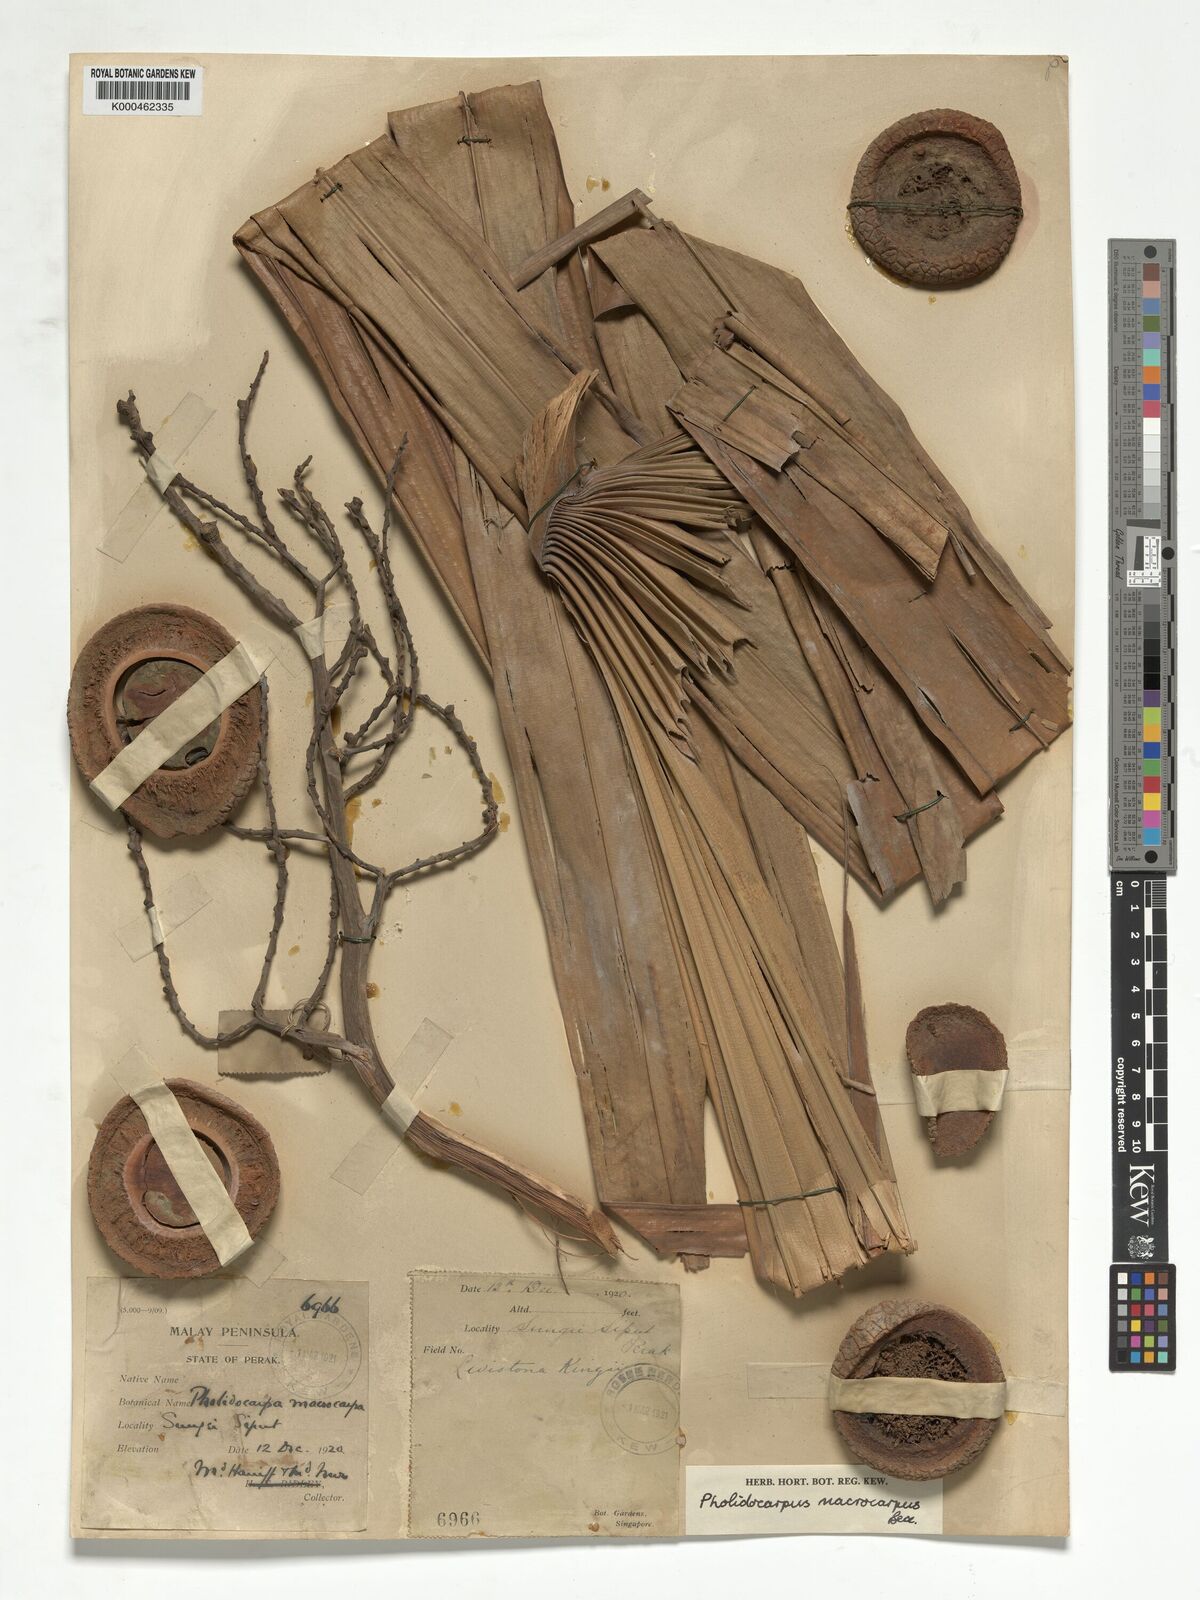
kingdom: Plantae
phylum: Tracheophyta
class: Liliopsida
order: Arecales
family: Arecaceae
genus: Pholidocarpus
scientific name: Pholidocarpus macrocarpus
